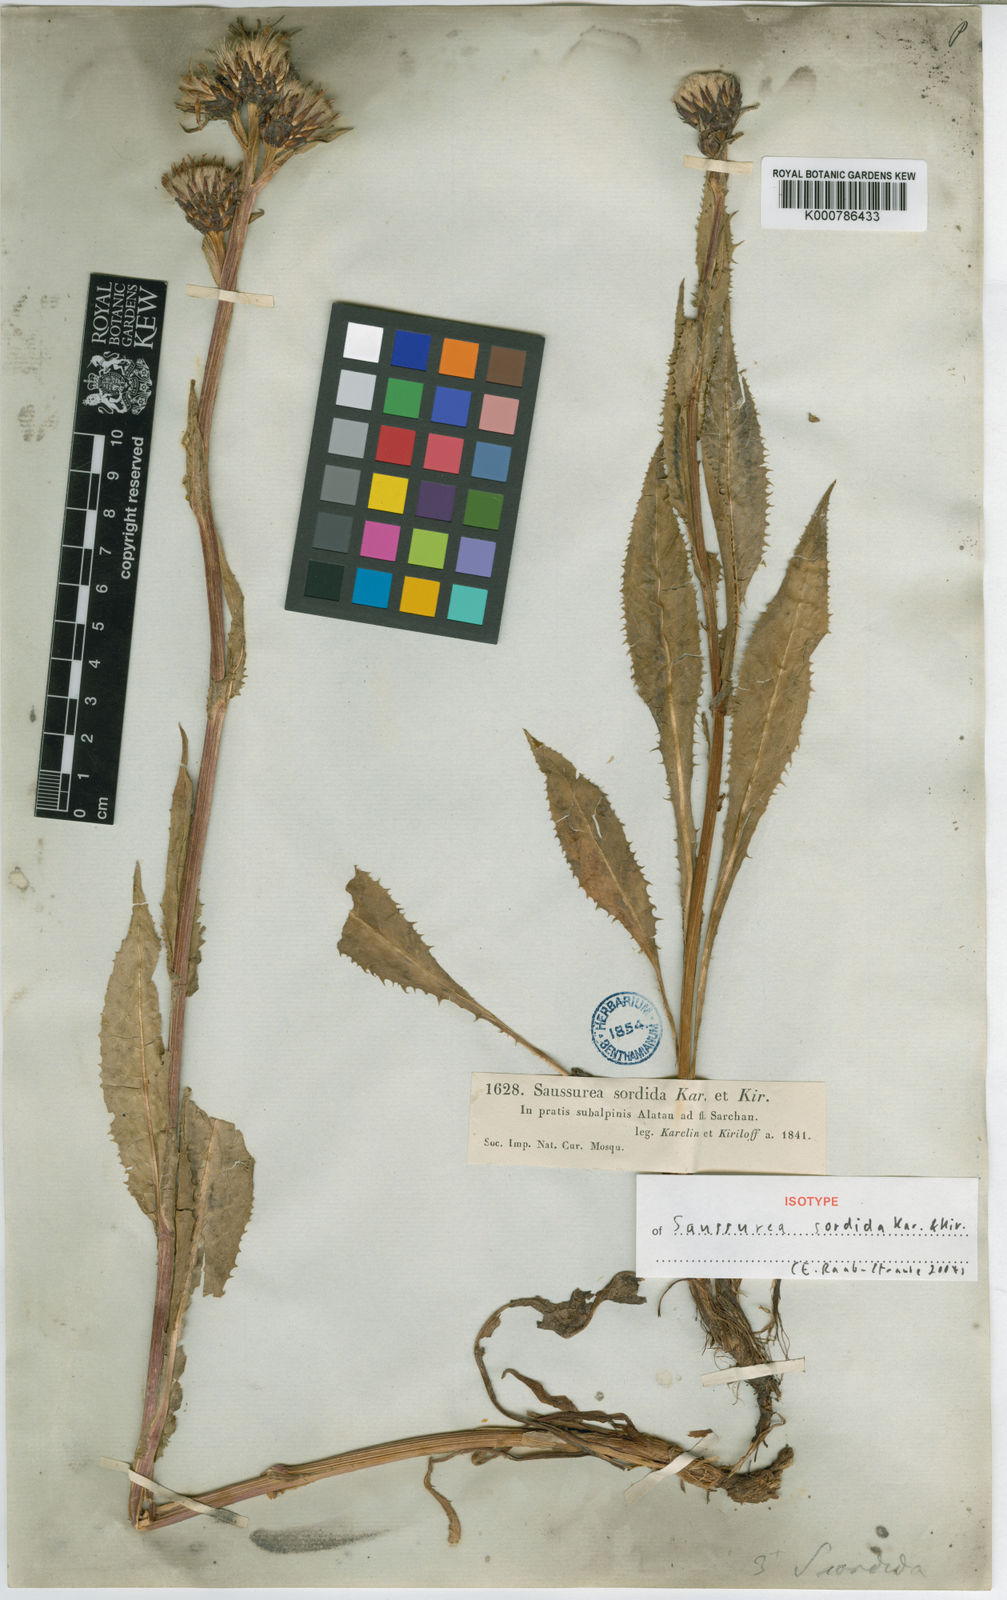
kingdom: Plantae
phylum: Tracheophyta
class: Magnoliopsida
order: Asterales
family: Asteraceae
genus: Saussurea
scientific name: Saussurea sordida
